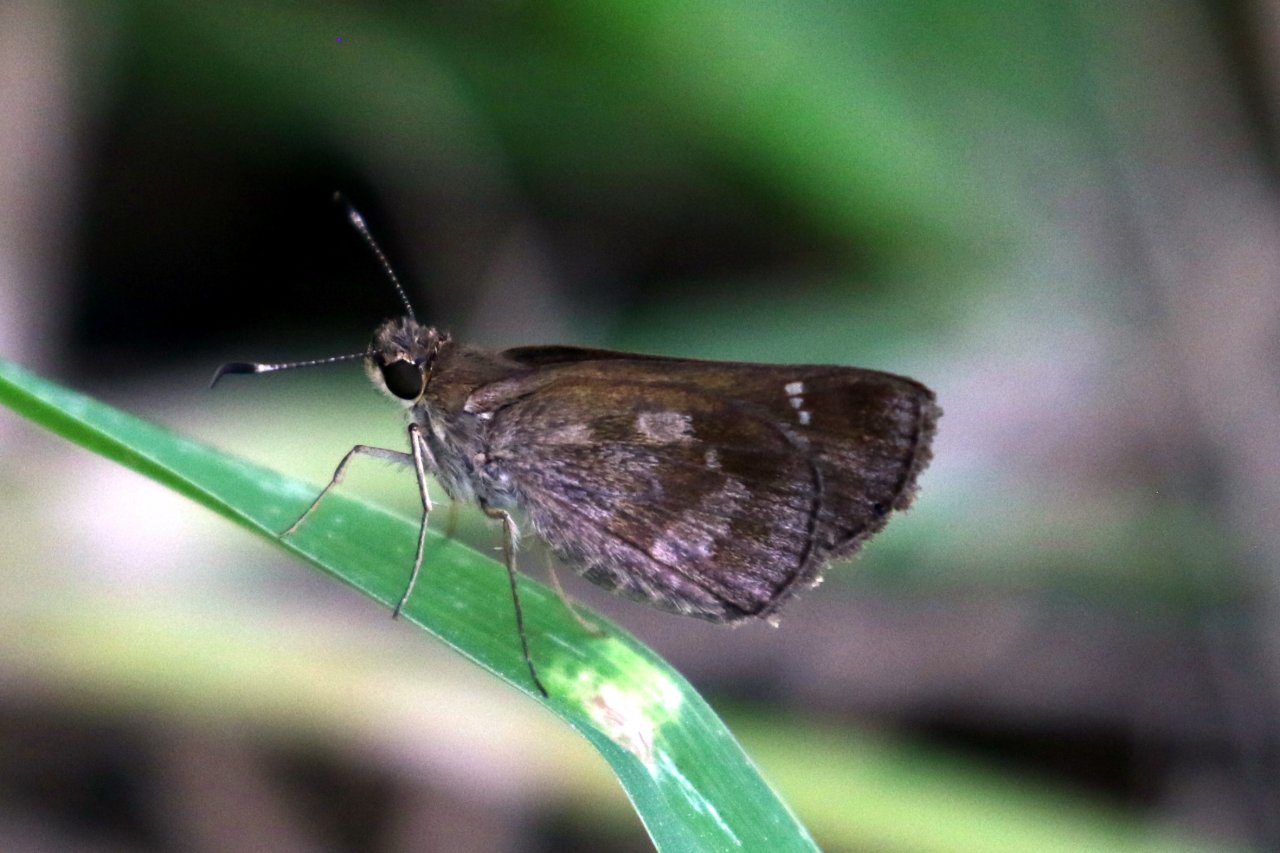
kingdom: Animalia
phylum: Arthropoda
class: Insecta
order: Lepidoptera
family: Hesperiidae
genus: Cymaenes
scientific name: Cymaenes odilia
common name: Fawn-spotted Skipper
